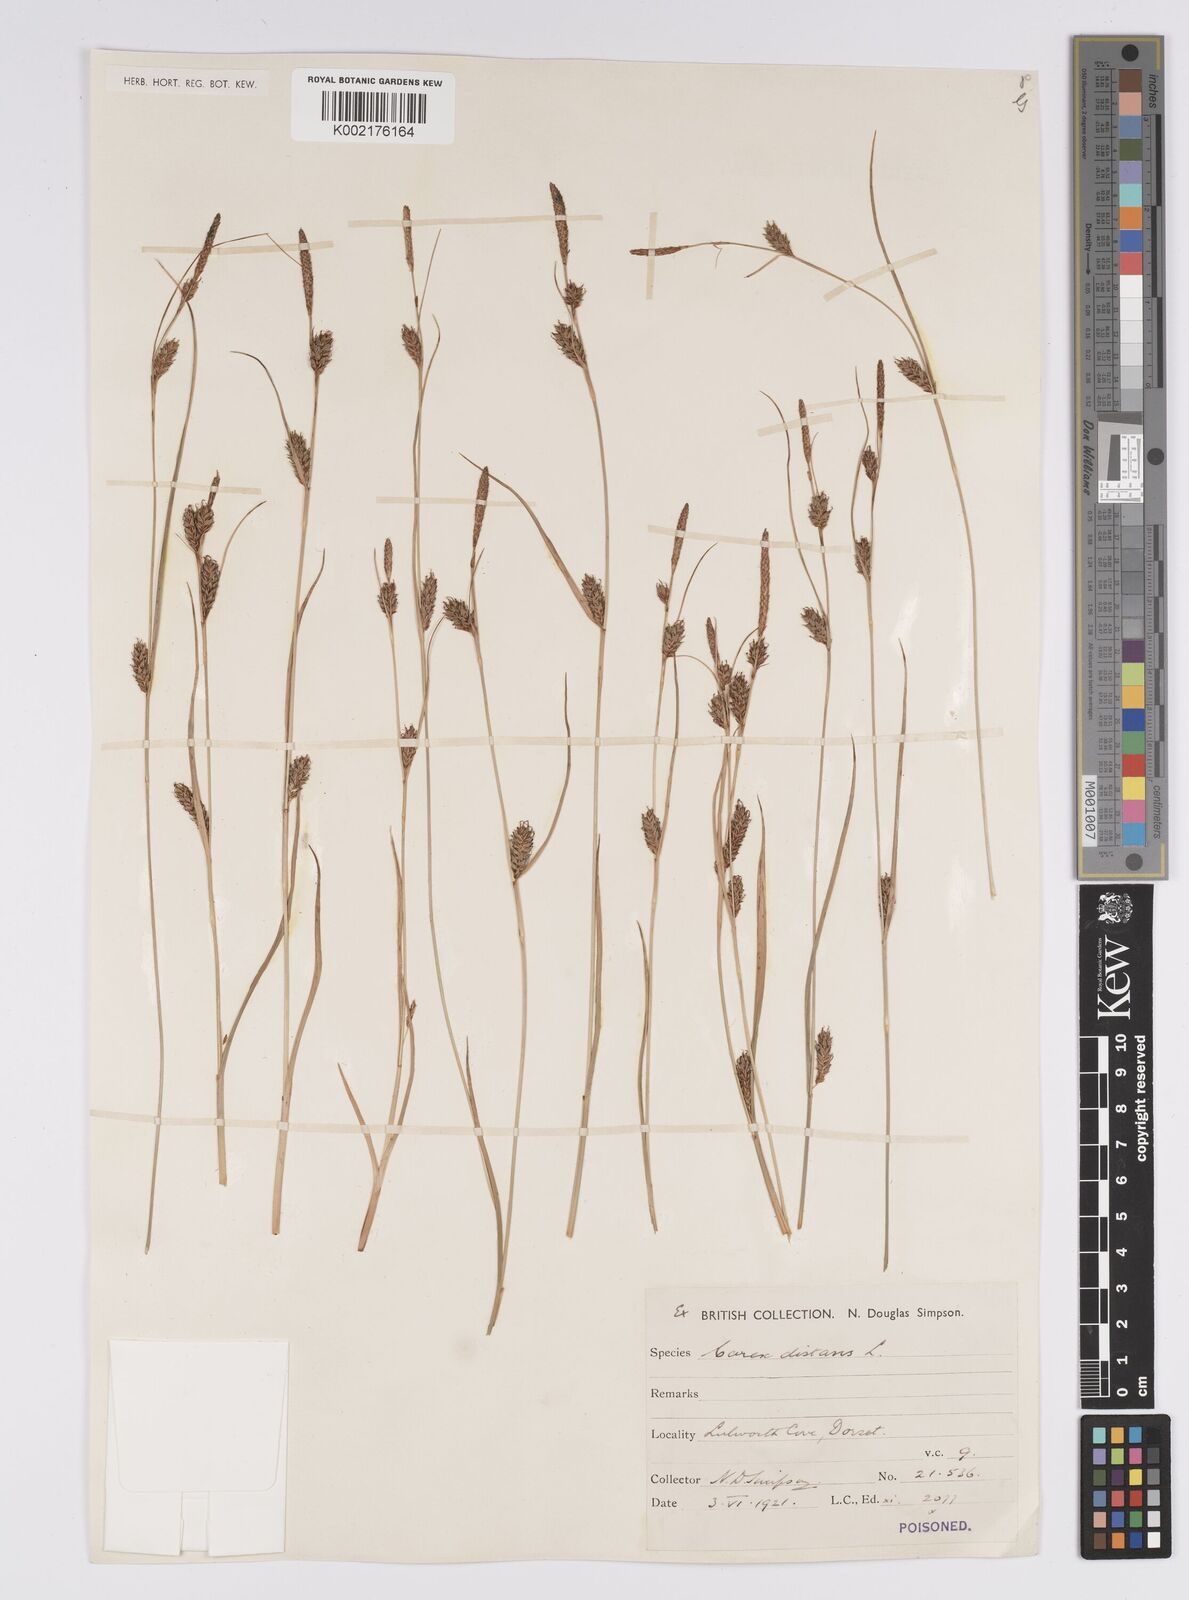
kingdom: Plantae
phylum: Tracheophyta
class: Liliopsida
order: Poales
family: Cyperaceae
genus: Carex
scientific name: Carex distans
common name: Distant sedge
